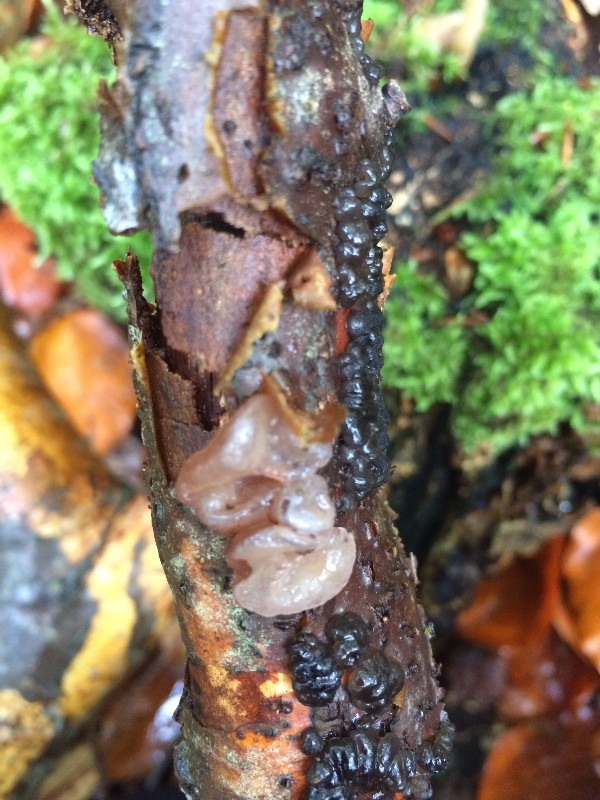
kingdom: Fungi
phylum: Basidiomycota
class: Agaricomycetes
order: Auriculariales
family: Auriculariaceae
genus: Exidia
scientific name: Exidia nigricans
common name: almindelig bævretop
